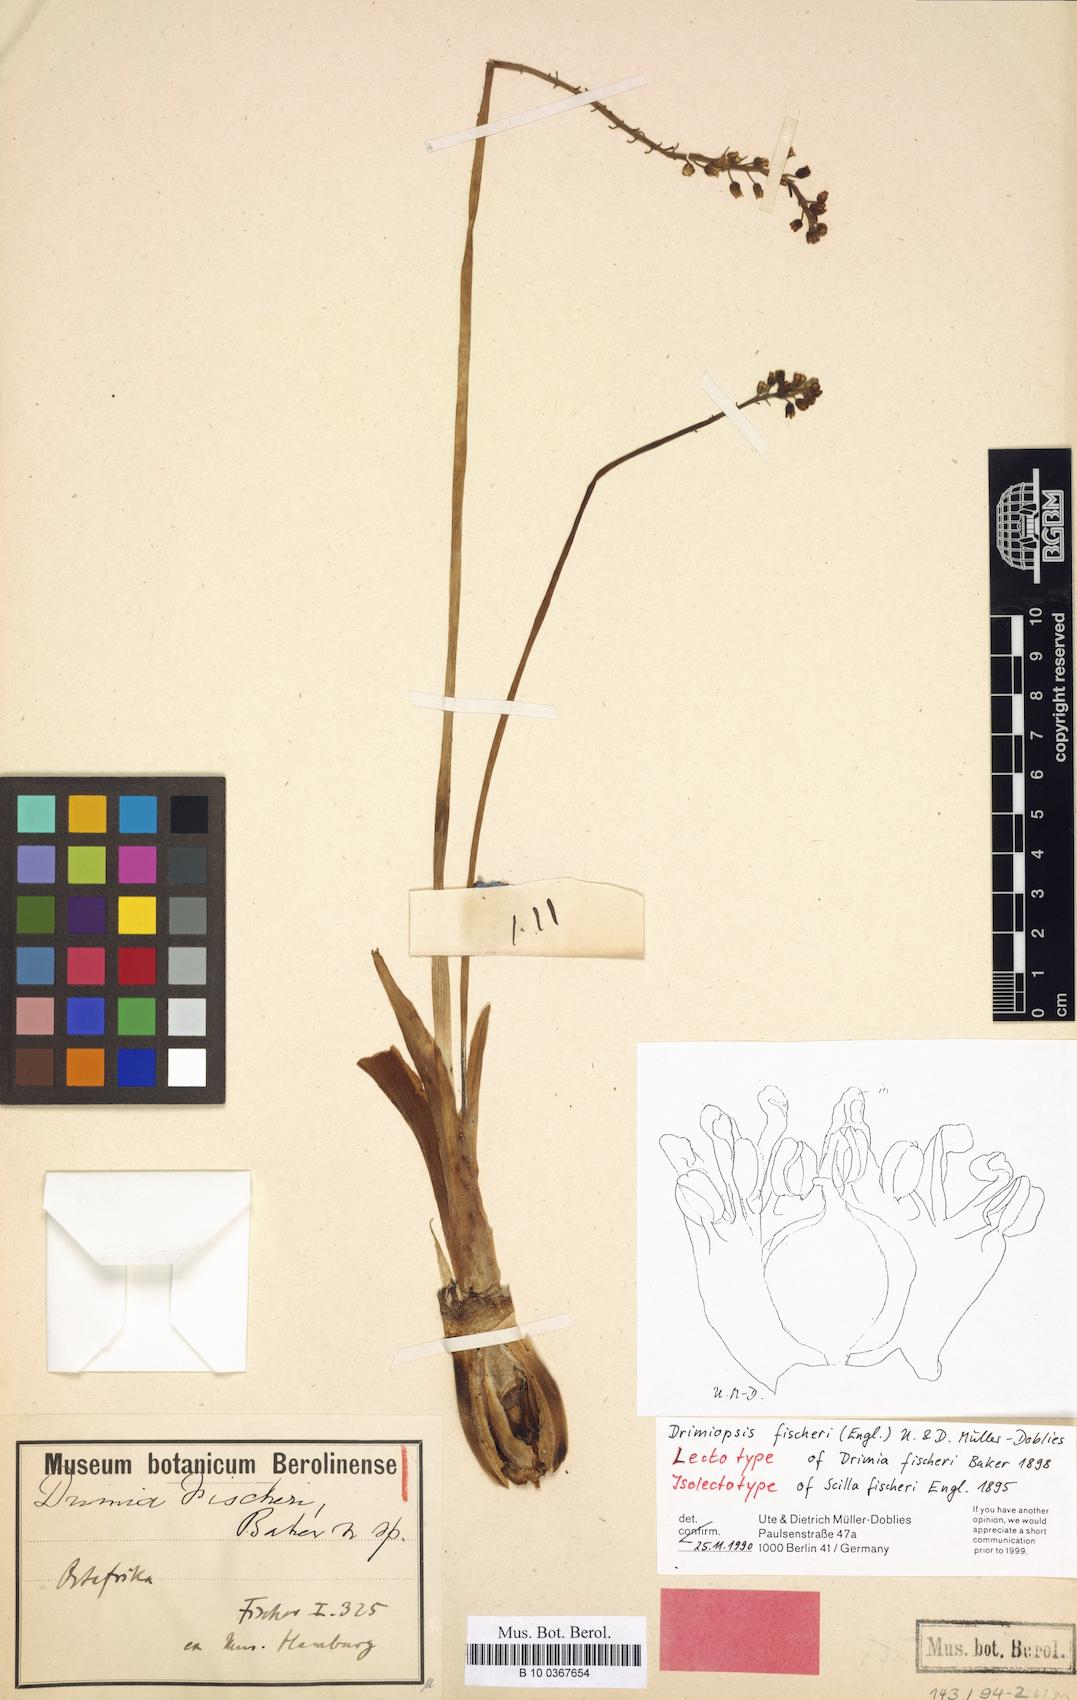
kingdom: Plantae
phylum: Tracheophyta
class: Liliopsida
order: Asparagales
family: Asparagaceae
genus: Drimiopsis
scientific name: Drimiopsis fischeri
